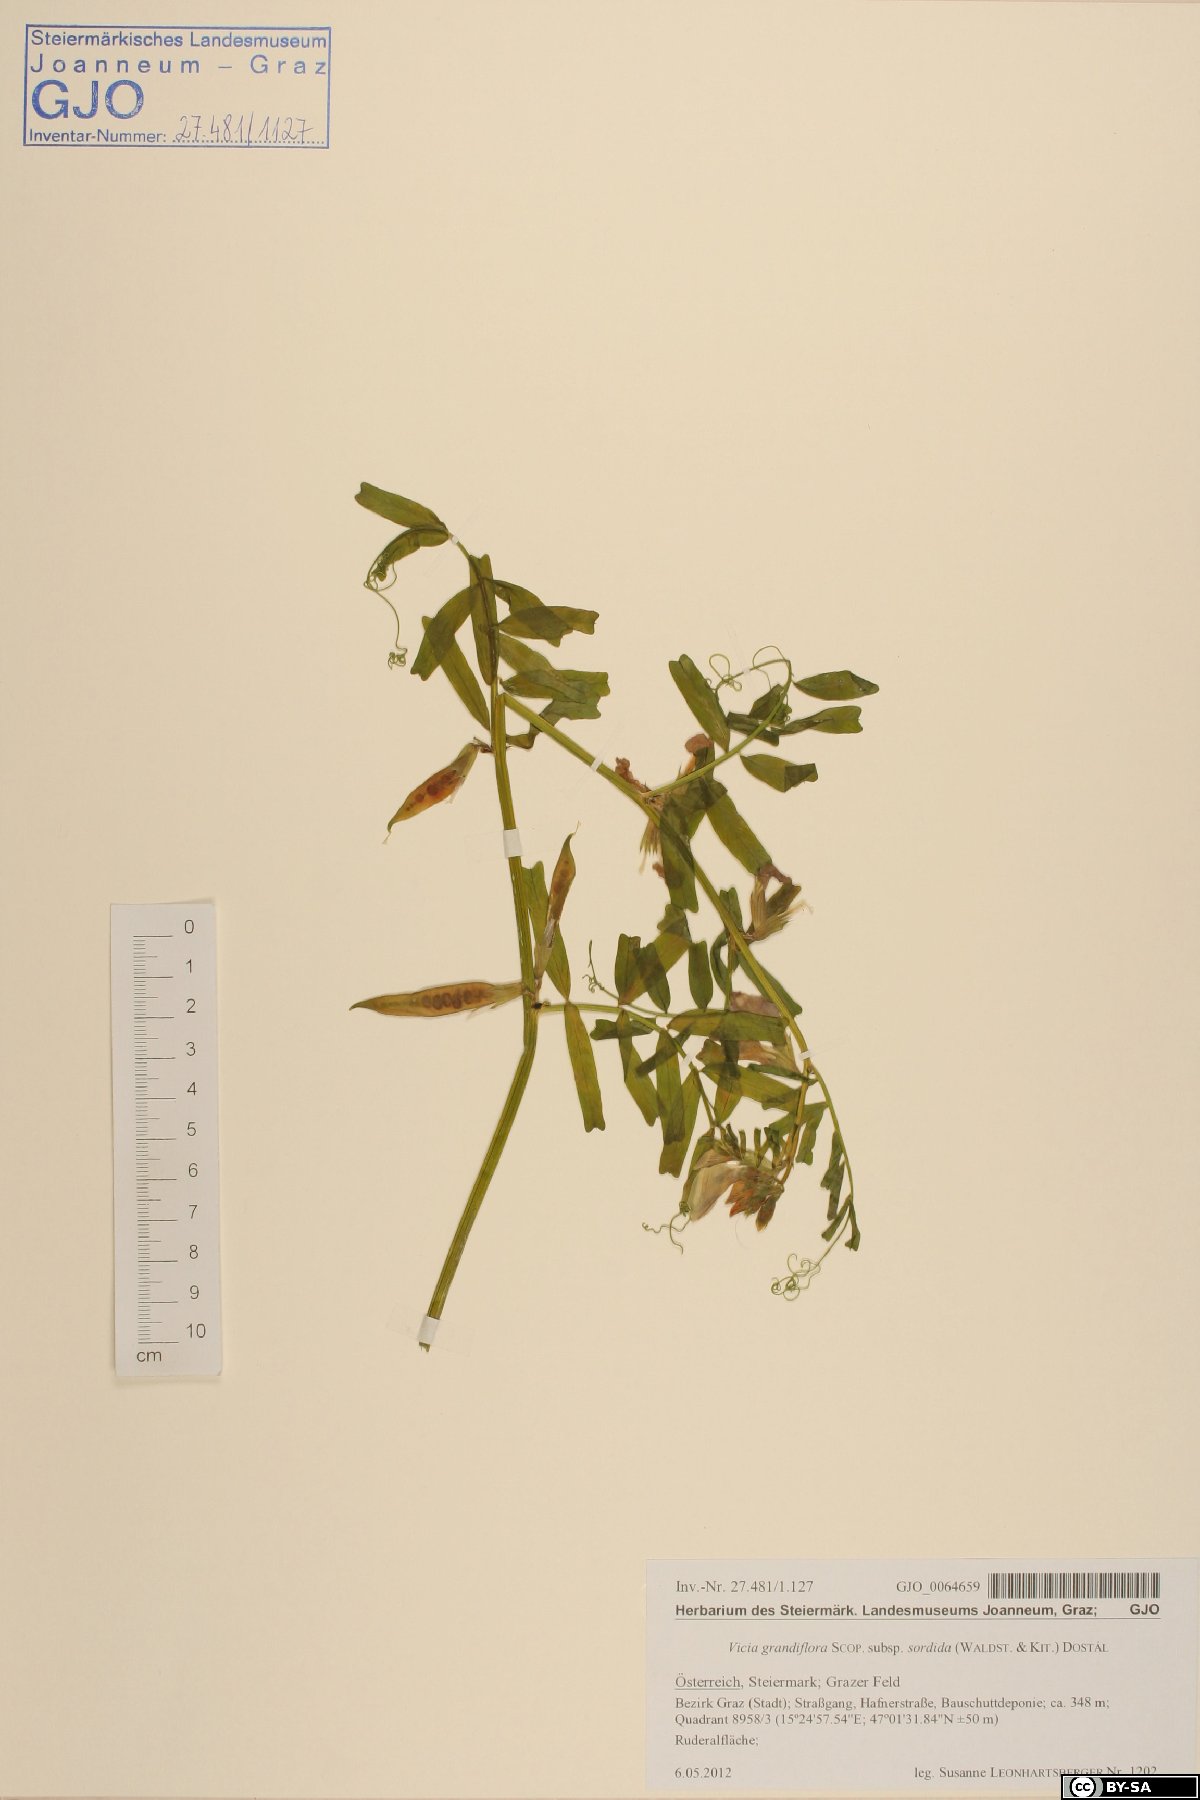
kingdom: Plantae
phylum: Tracheophyta
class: Magnoliopsida
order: Fabales
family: Fabaceae
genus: Vicia
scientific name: Vicia grandiflora
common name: Large yellow vetch
